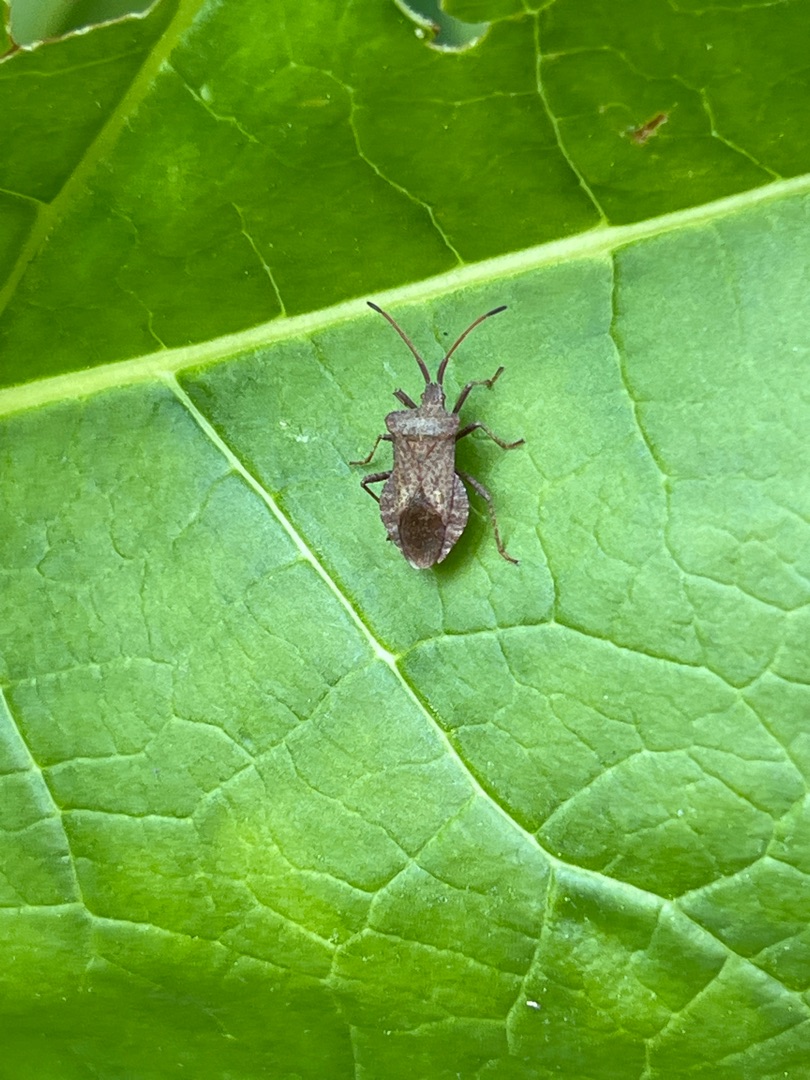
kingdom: Animalia
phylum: Arthropoda
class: Insecta
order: Hemiptera
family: Coreidae
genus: Coreus
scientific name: Coreus marginatus
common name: Skræppetæge
